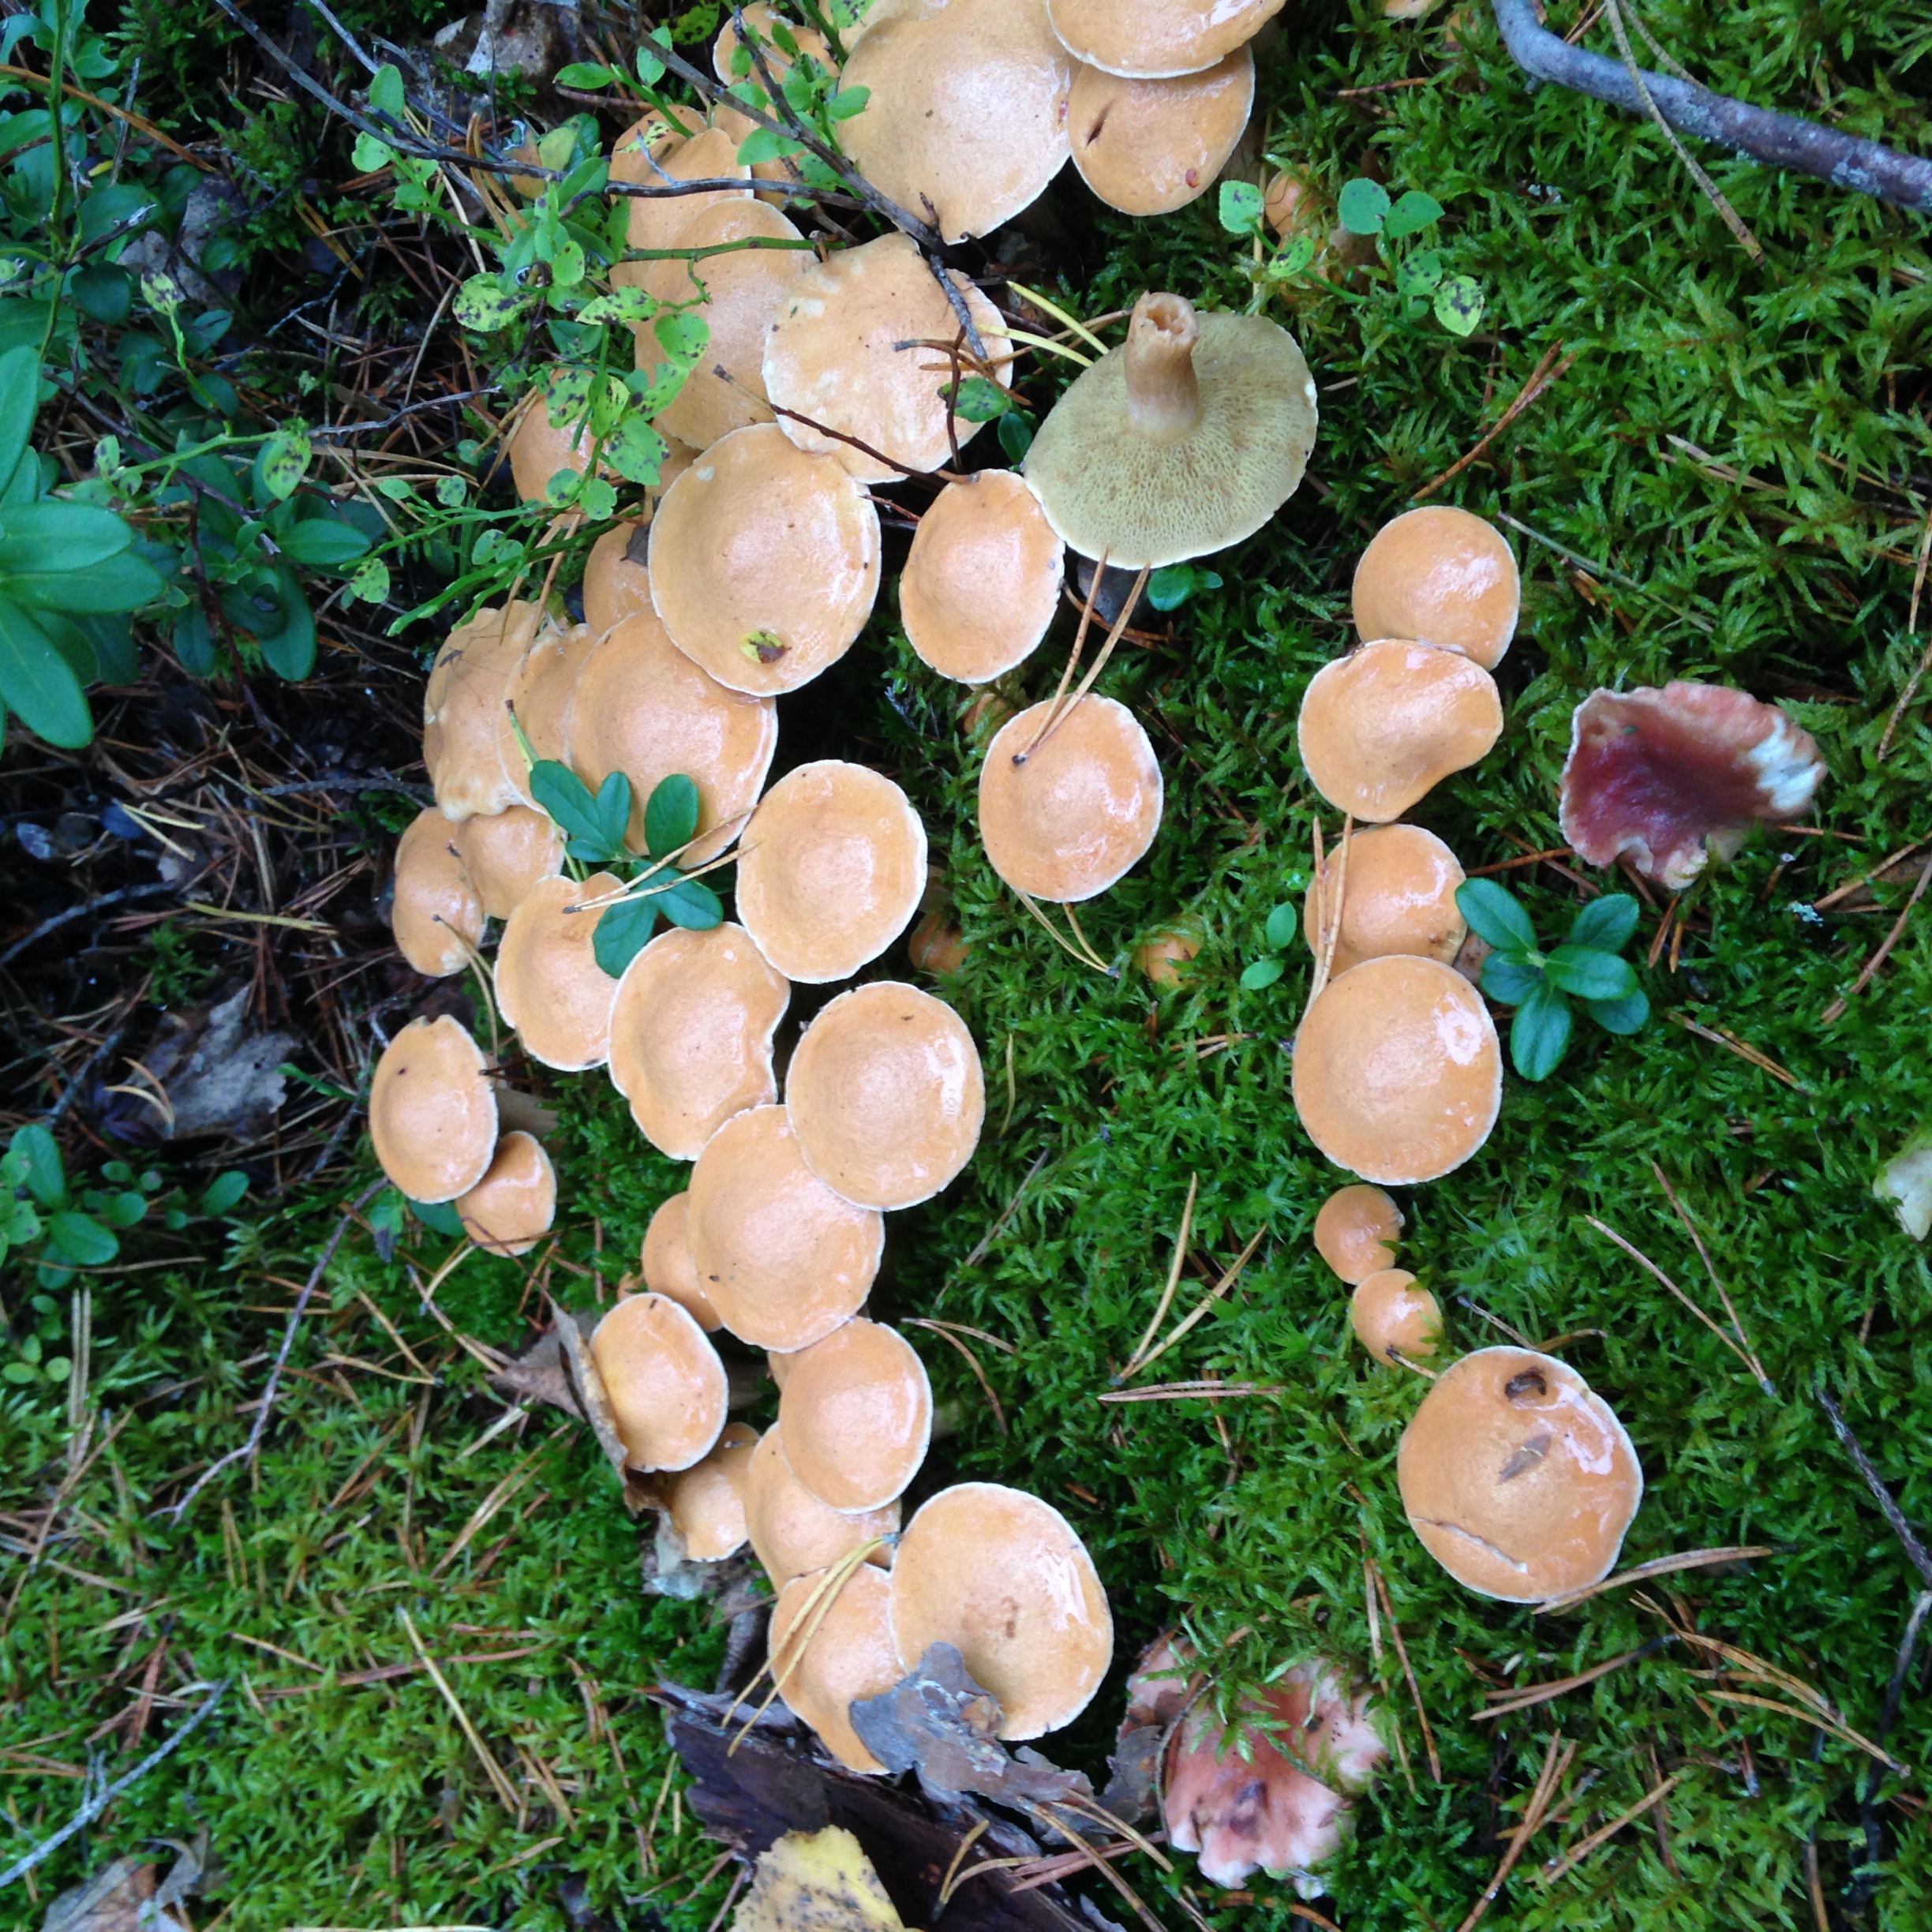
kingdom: Fungi
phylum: Basidiomycota
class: Agaricomycetes
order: Boletales
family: Suillaceae
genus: Suillus
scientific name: Suillus bovinus
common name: Bovine bolete
